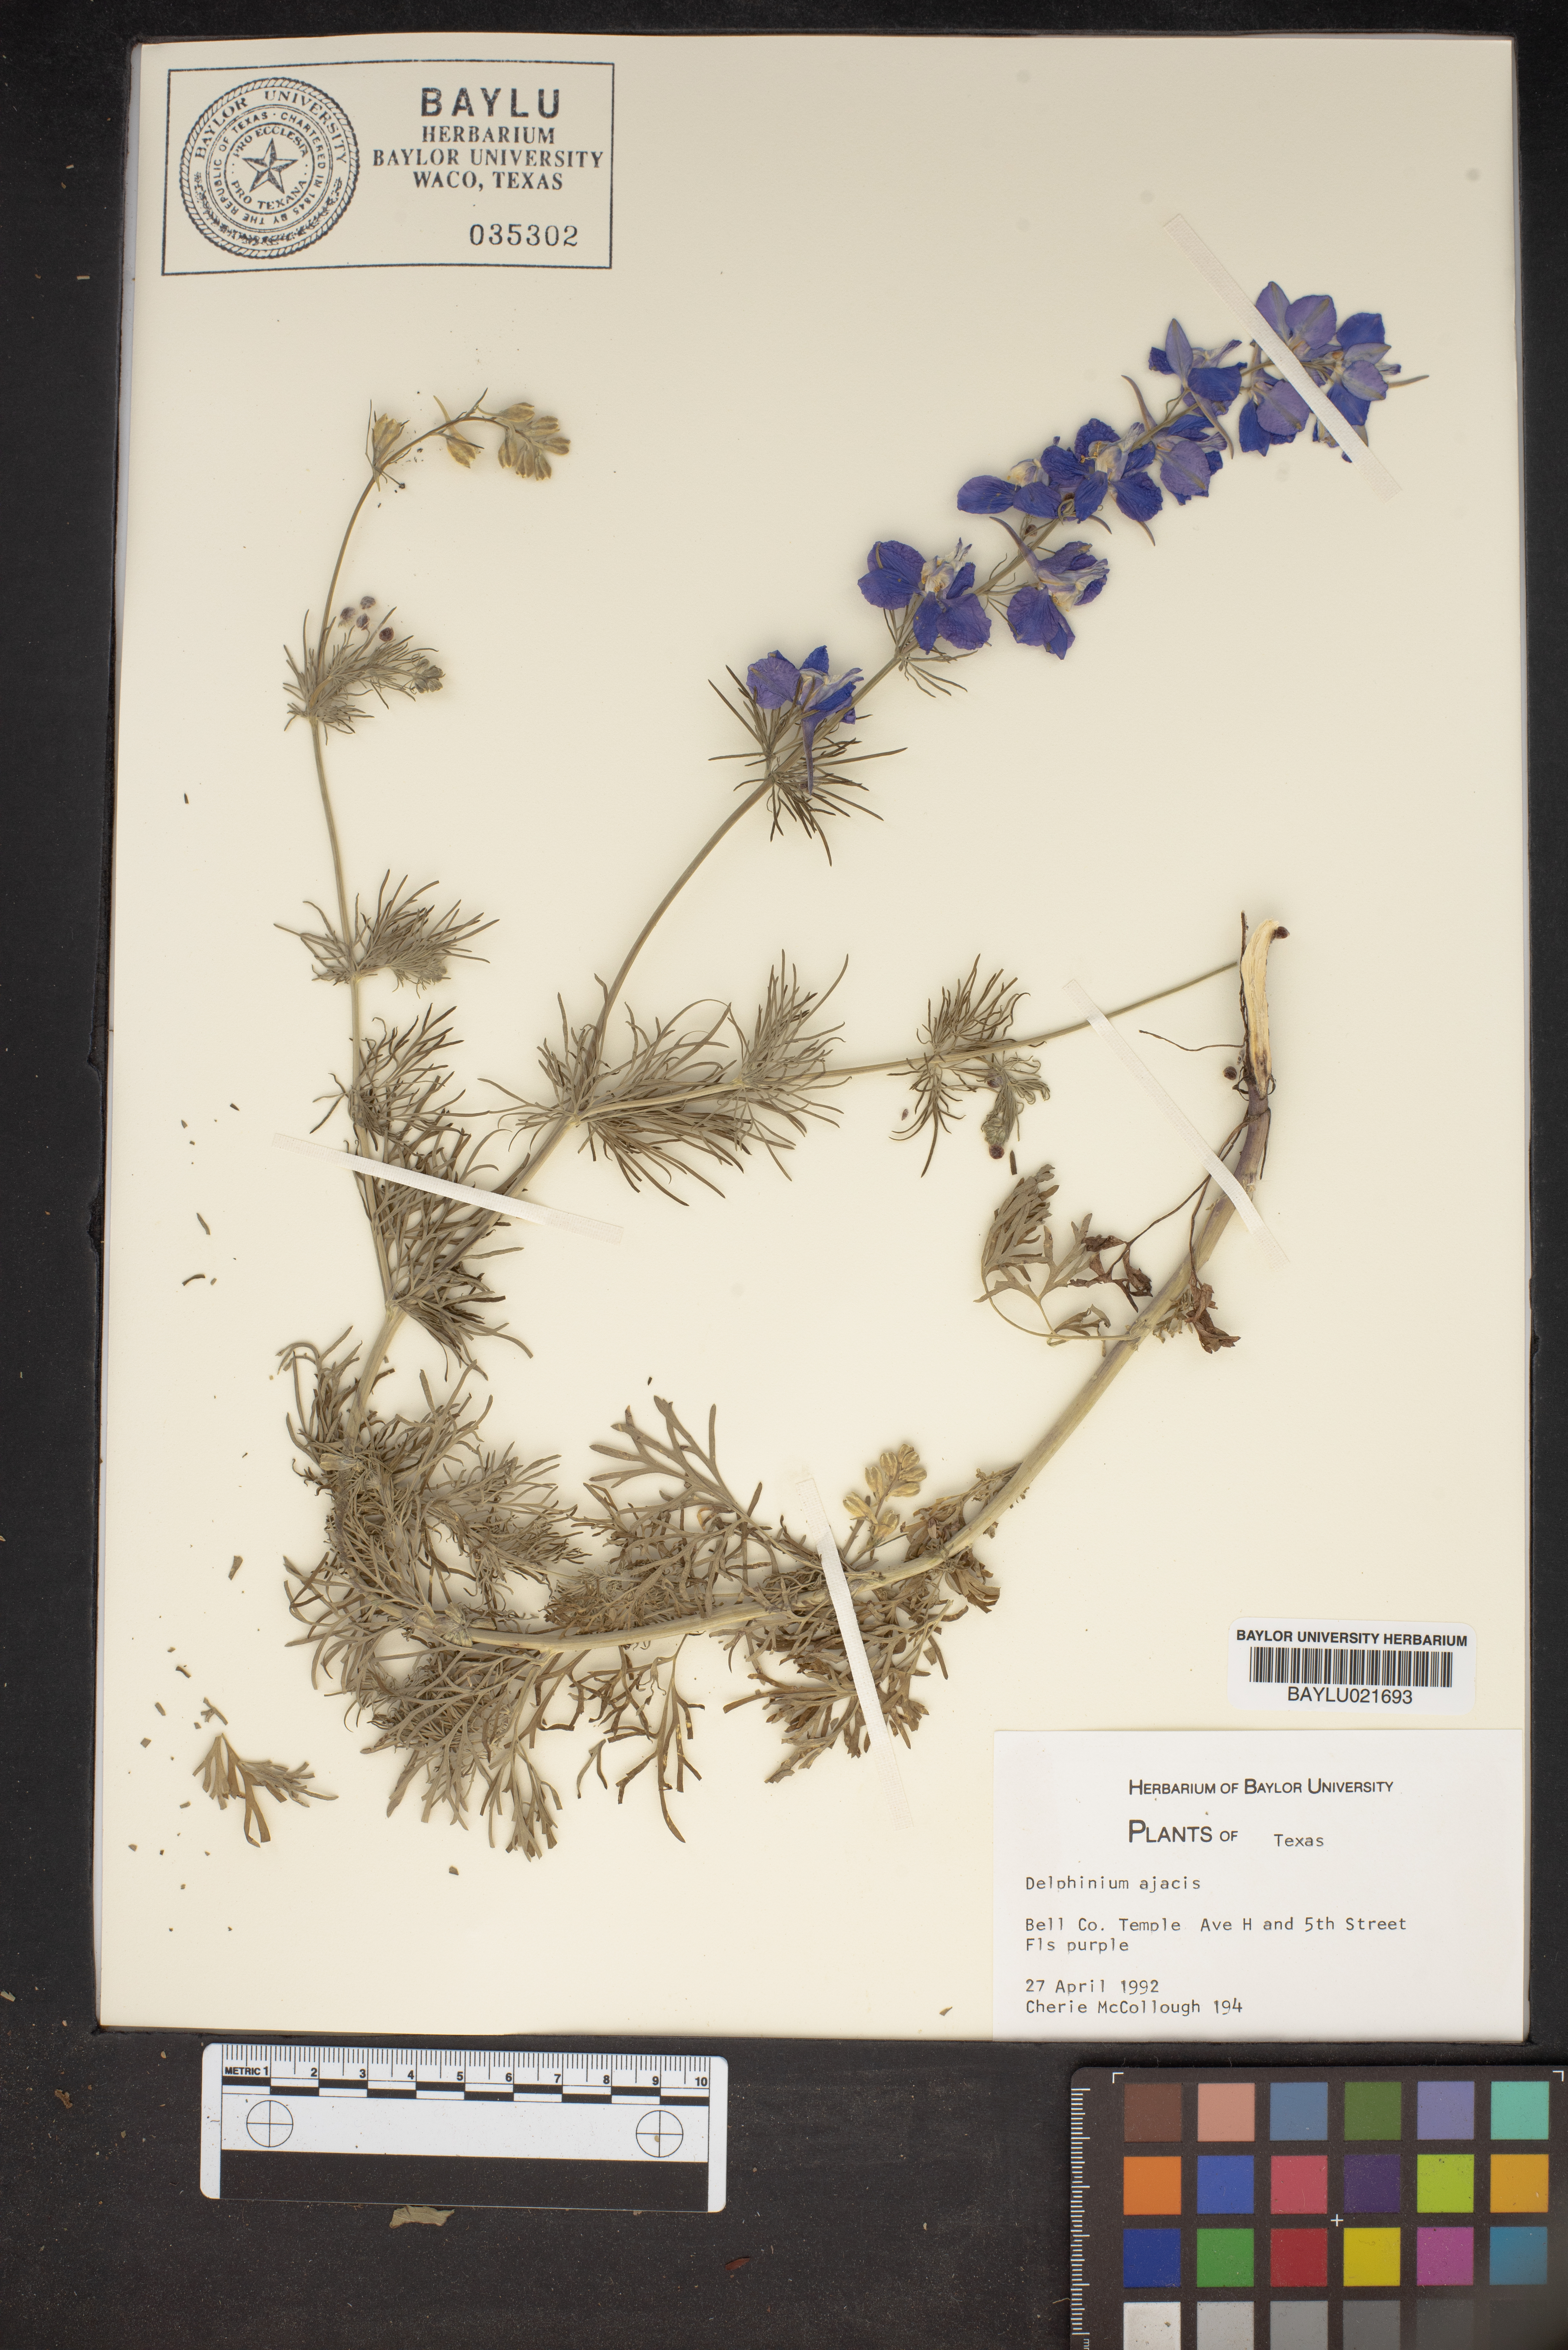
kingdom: Plantae
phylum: Tracheophyta
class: Magnoliopsida
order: Ranunculales
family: Ranunculaceae
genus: Delphinium
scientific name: Delphinium ajacis
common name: Doubtful knight's-spur
